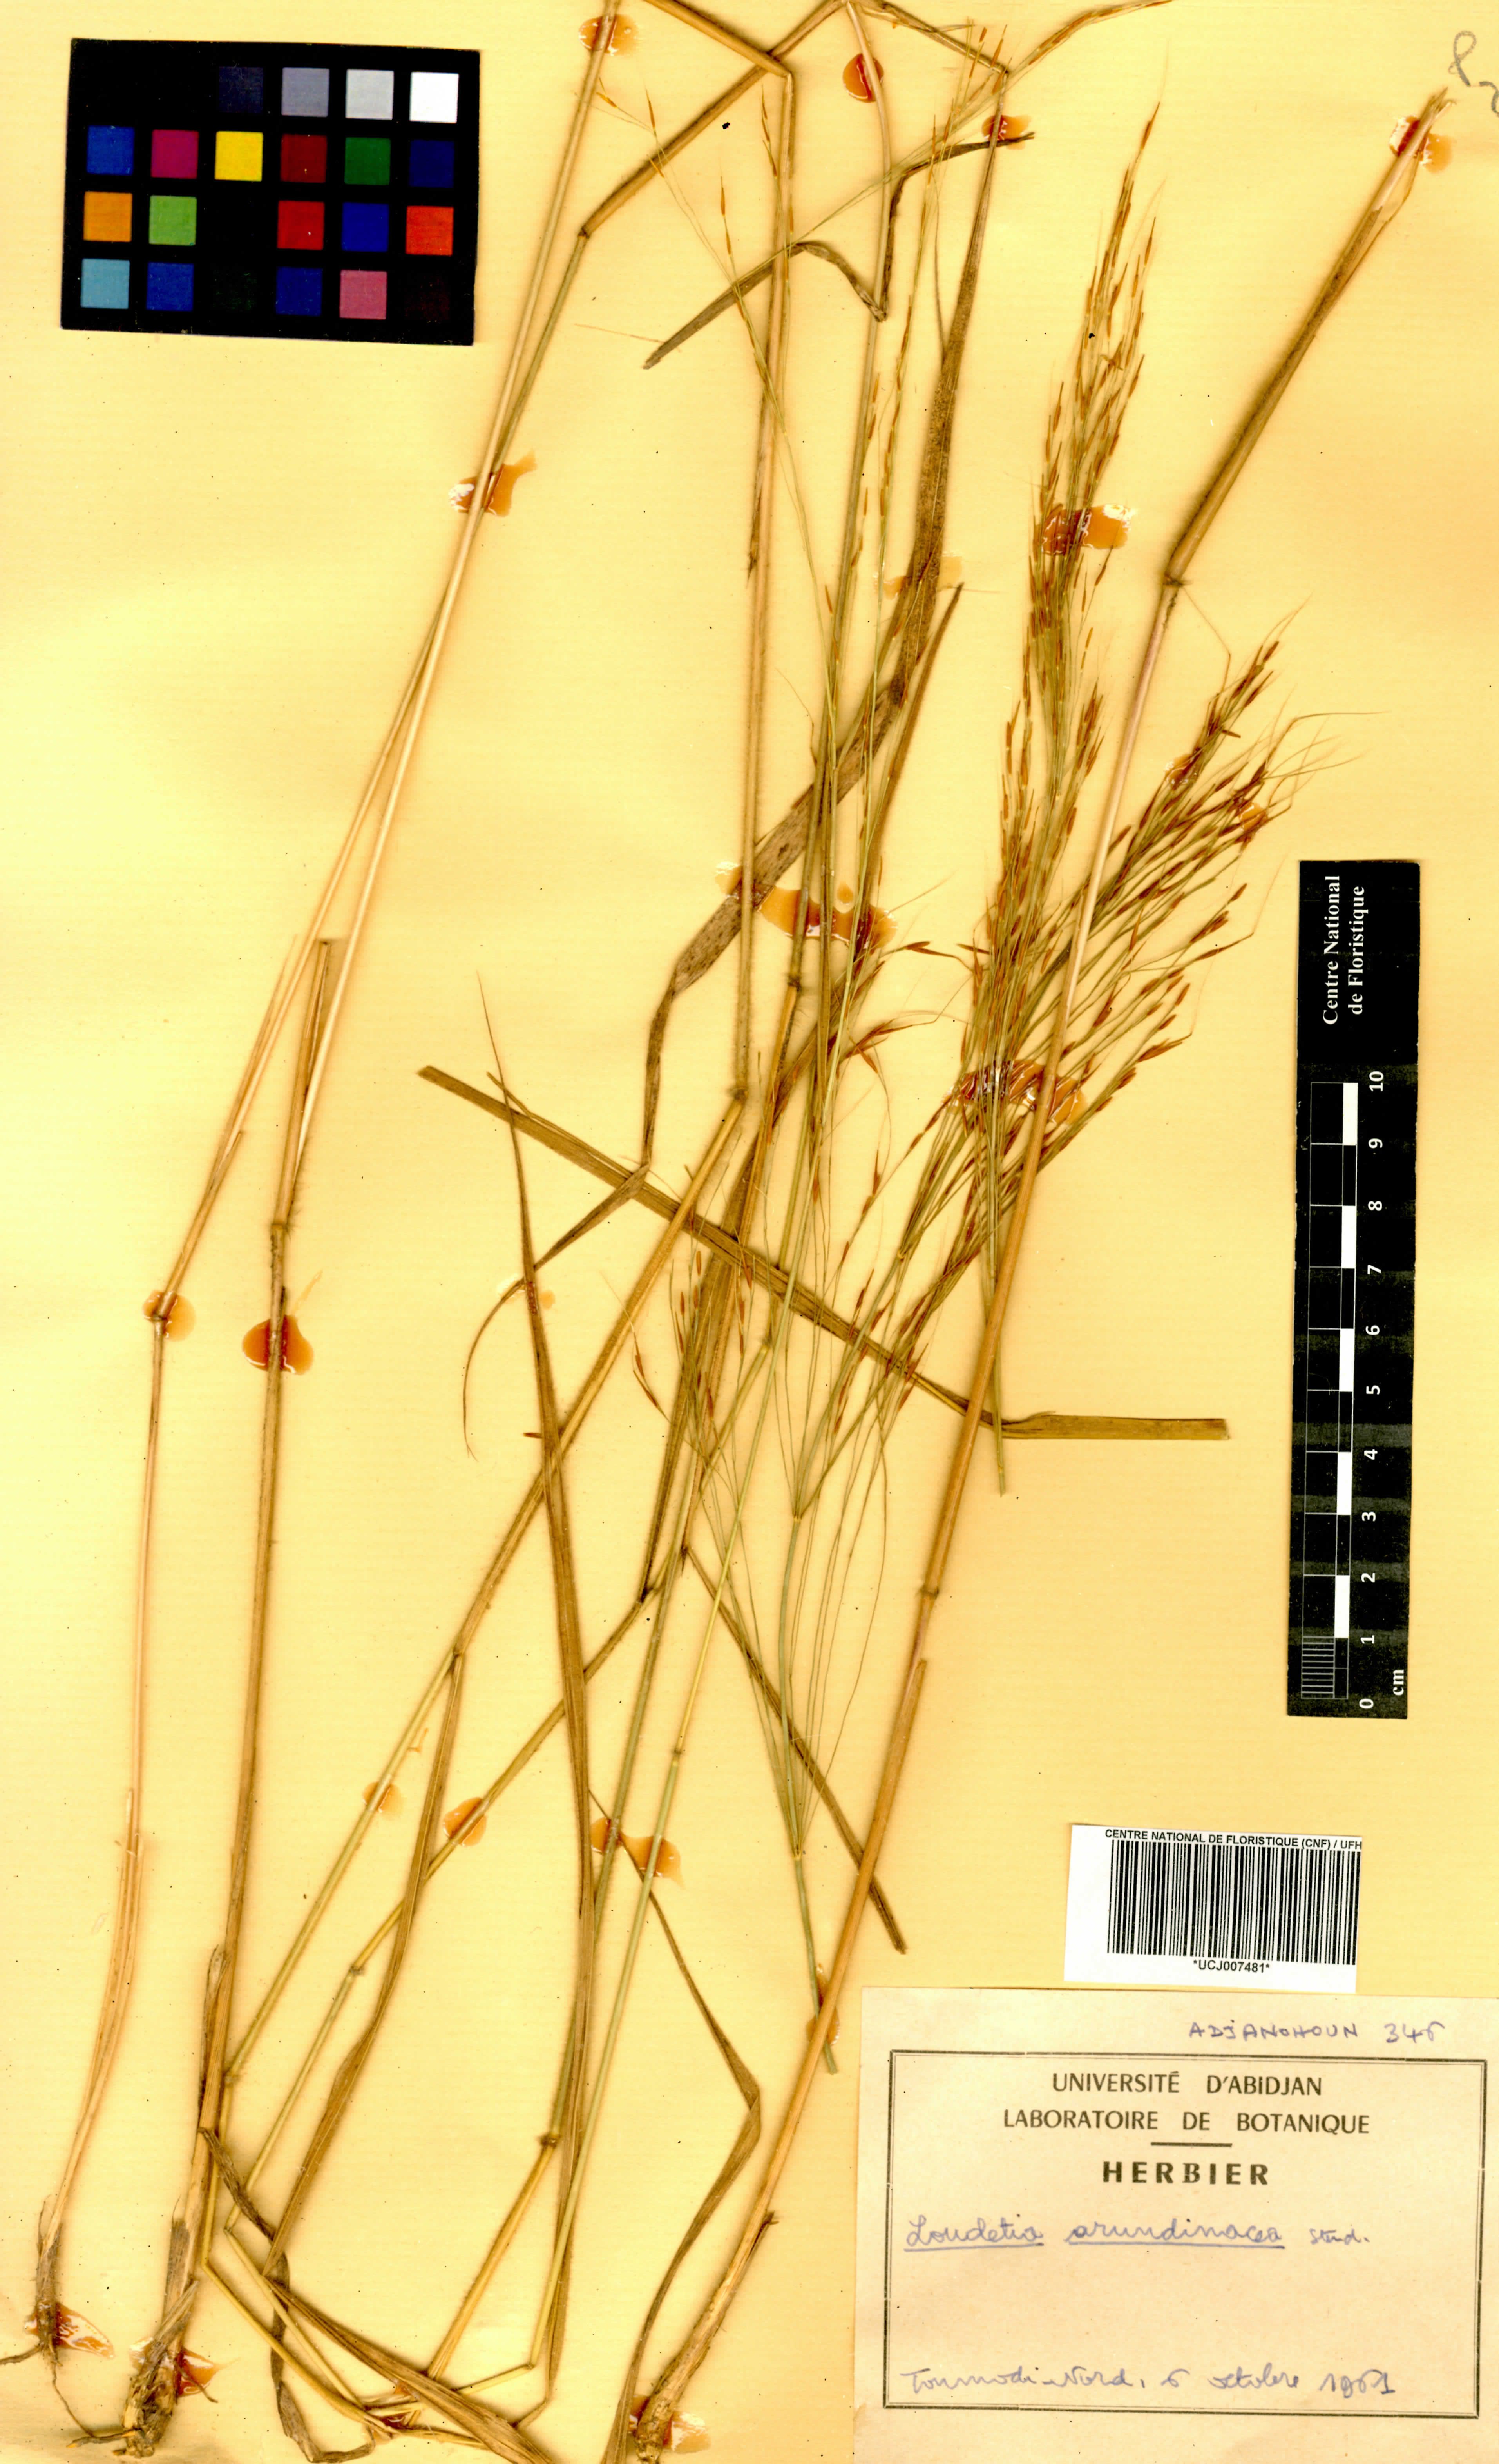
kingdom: Plantae
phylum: Tracheophyta
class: Liliopsida
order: Poales
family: Poaceae
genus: Loudetia
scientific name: Loudetia arundinacea
